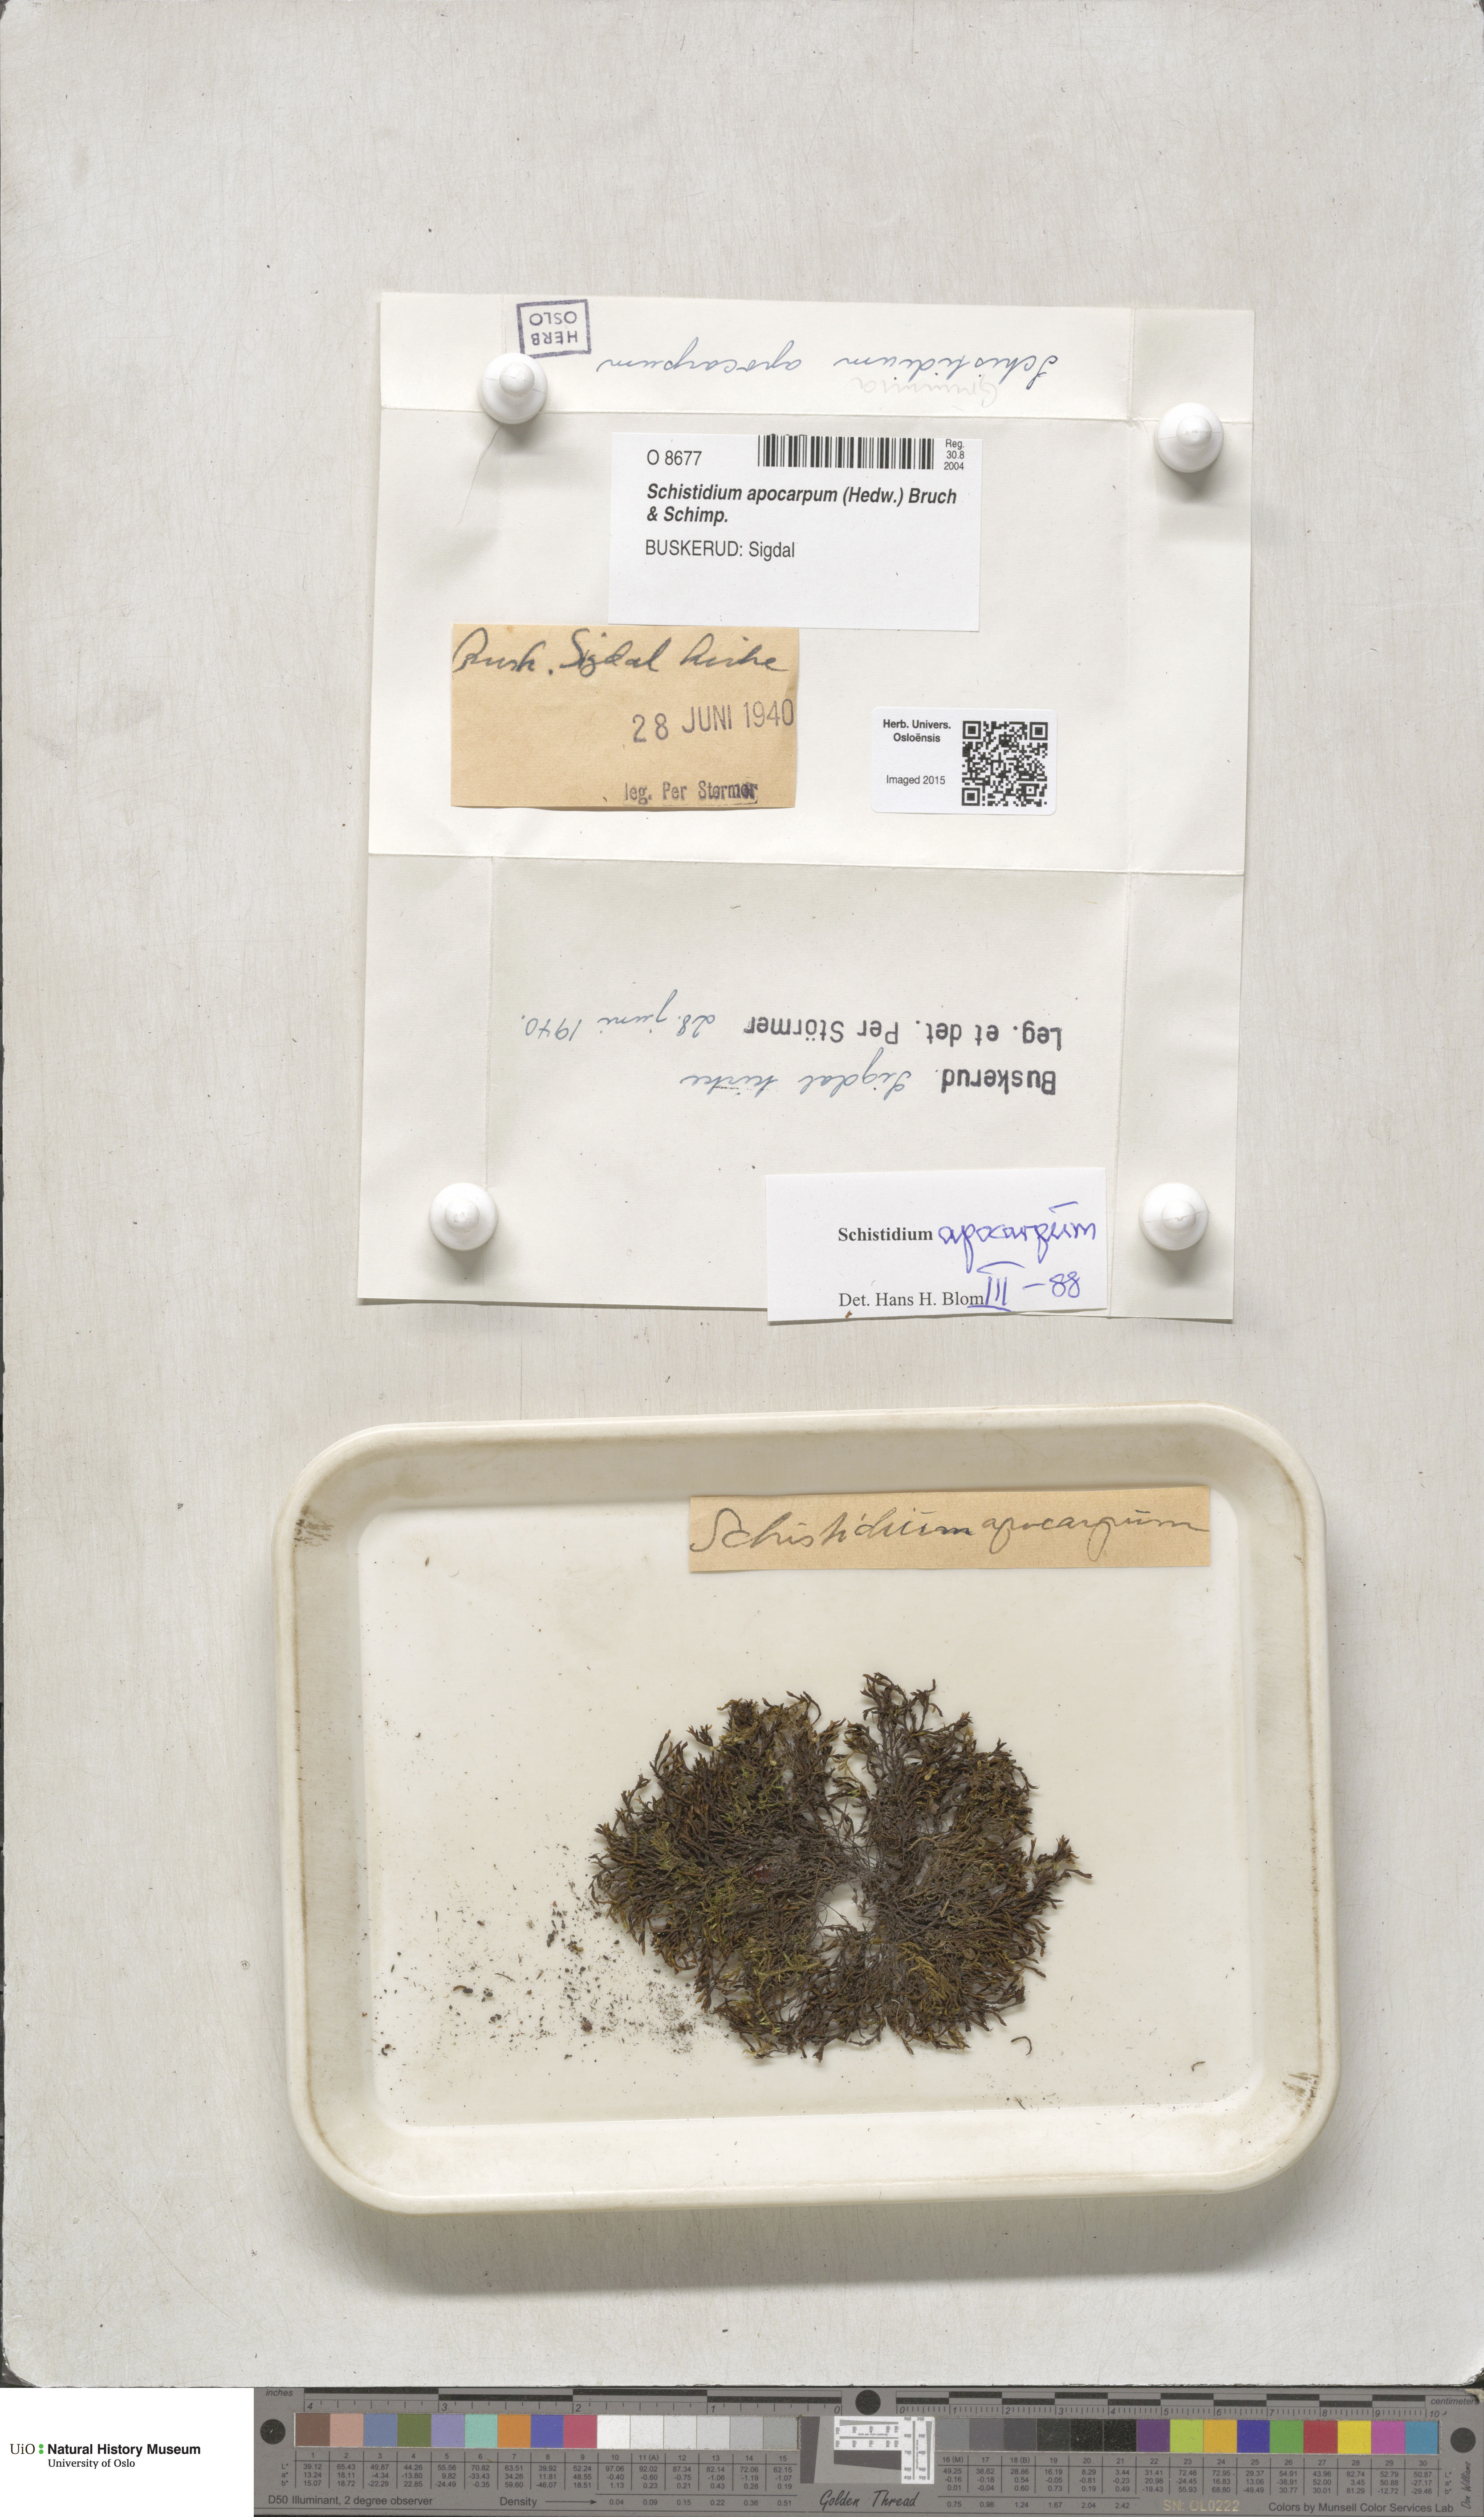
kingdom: Plantae
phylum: Bryophyta
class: Bryopsida
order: Grimmiales
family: Grimmiaceae
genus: Schistidium
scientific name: Schistidium apocarpum
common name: Radiate bloom moss
